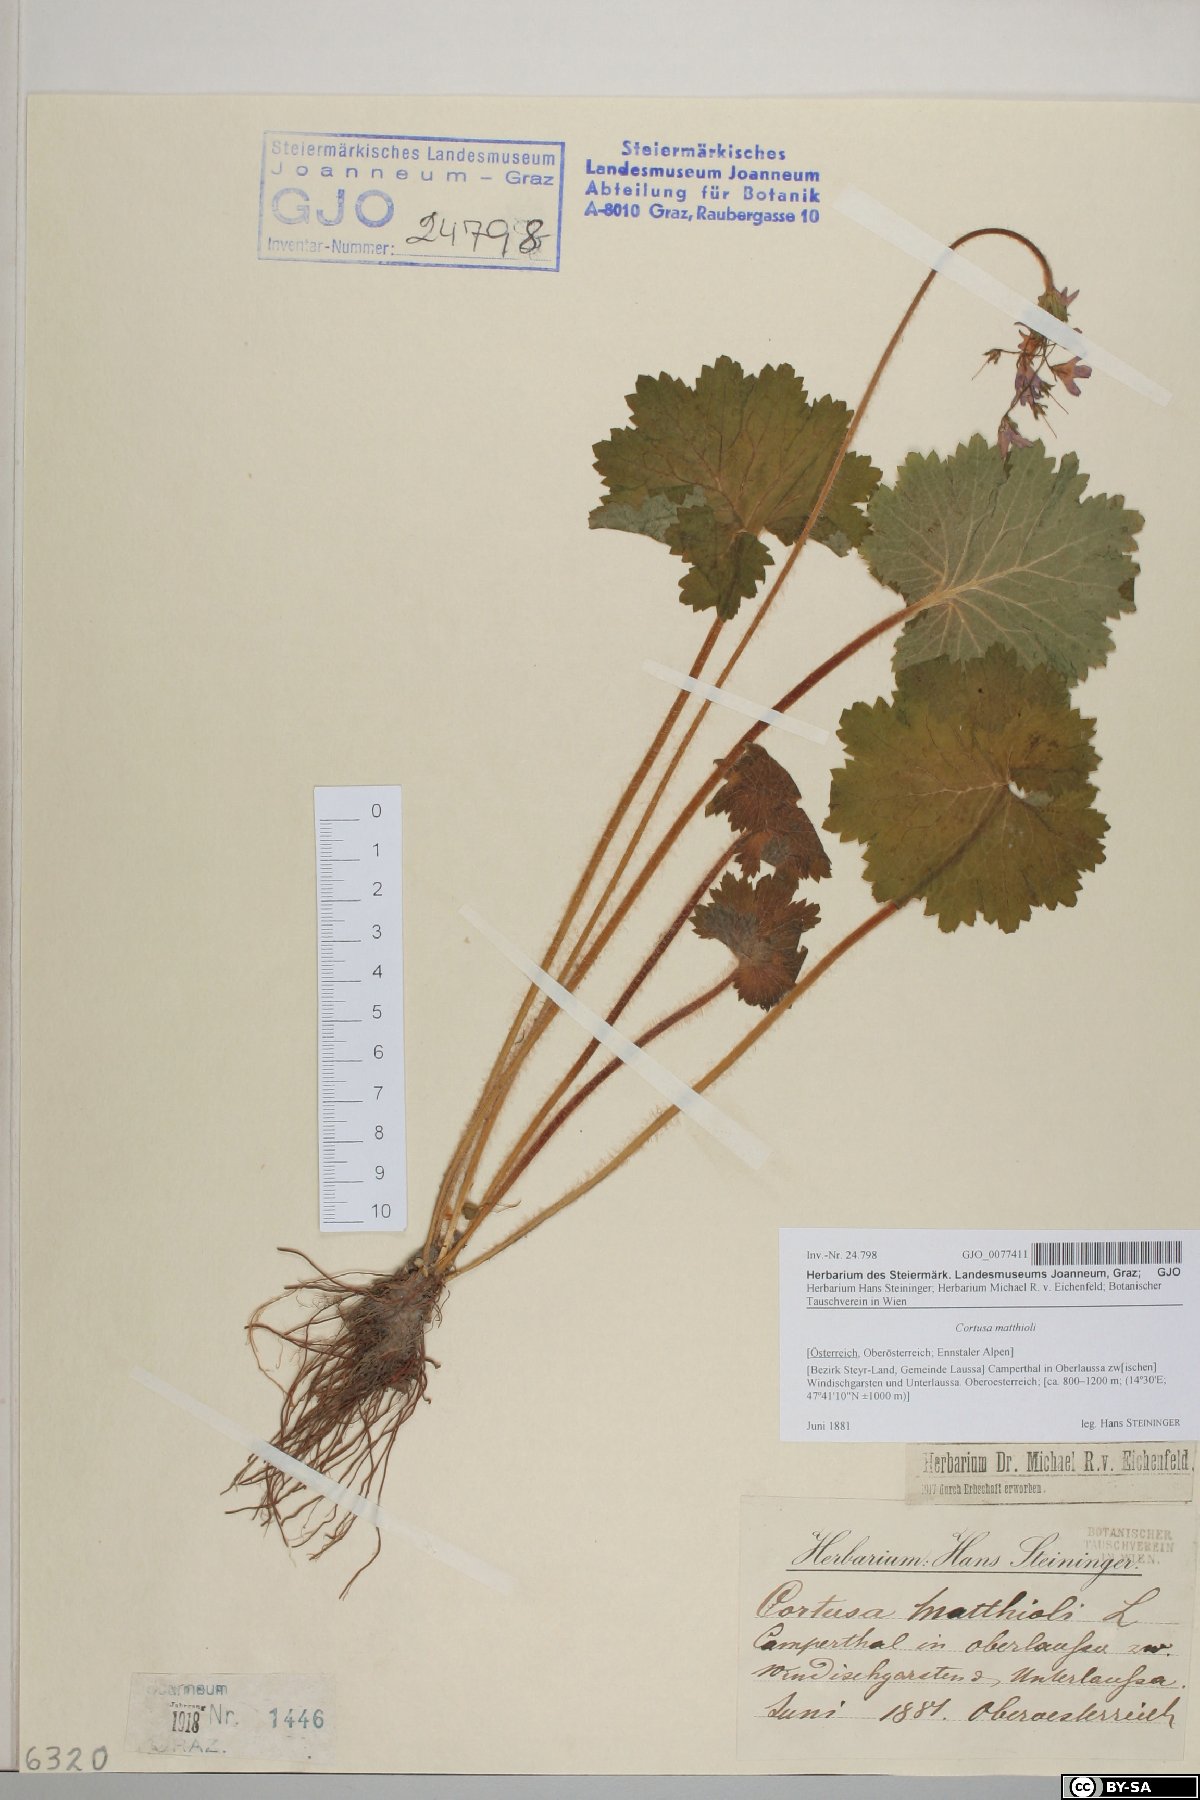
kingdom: Plantae
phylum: Tracheophyta
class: Magnoliopsida
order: Ericales
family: Primulaceae
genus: Primula
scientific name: Primula matthioli
